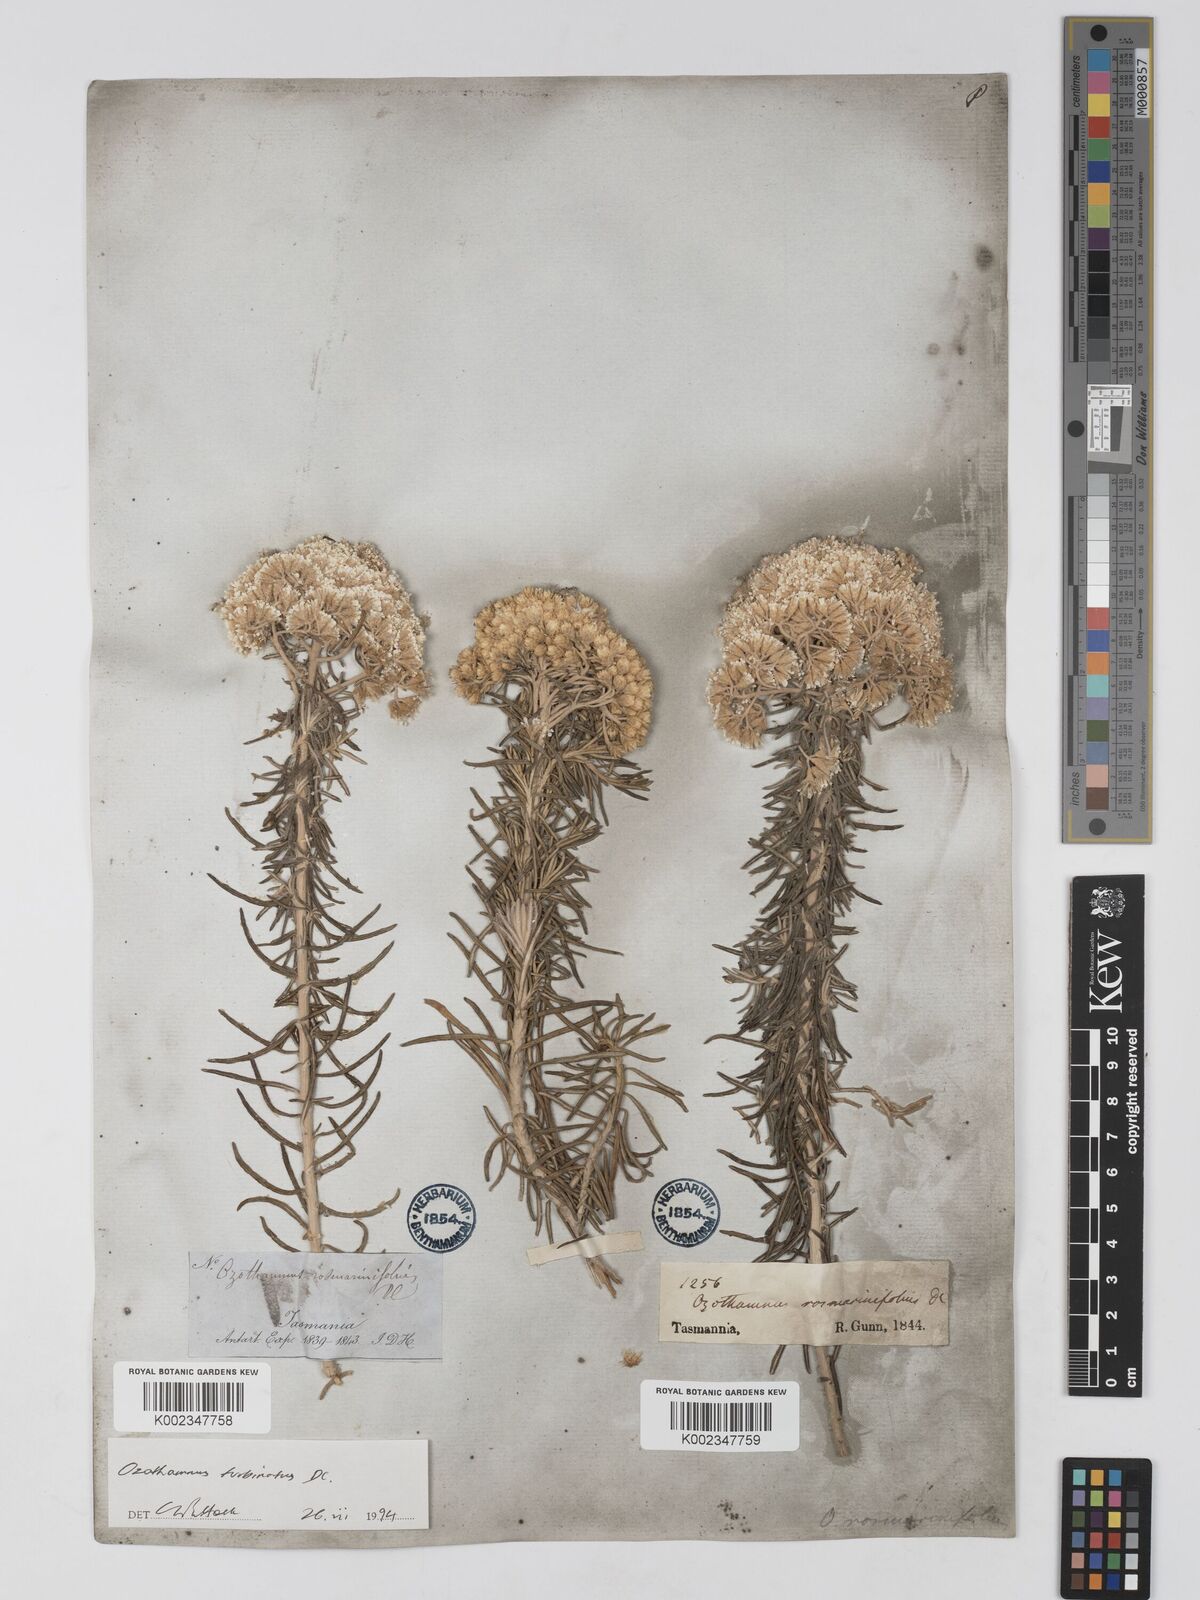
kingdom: Plantae
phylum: Tracheophyta
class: Magnoliopsida
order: Asterales
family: Asteraceae
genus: Ozothamnus
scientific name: Ozothamnus cinereus
